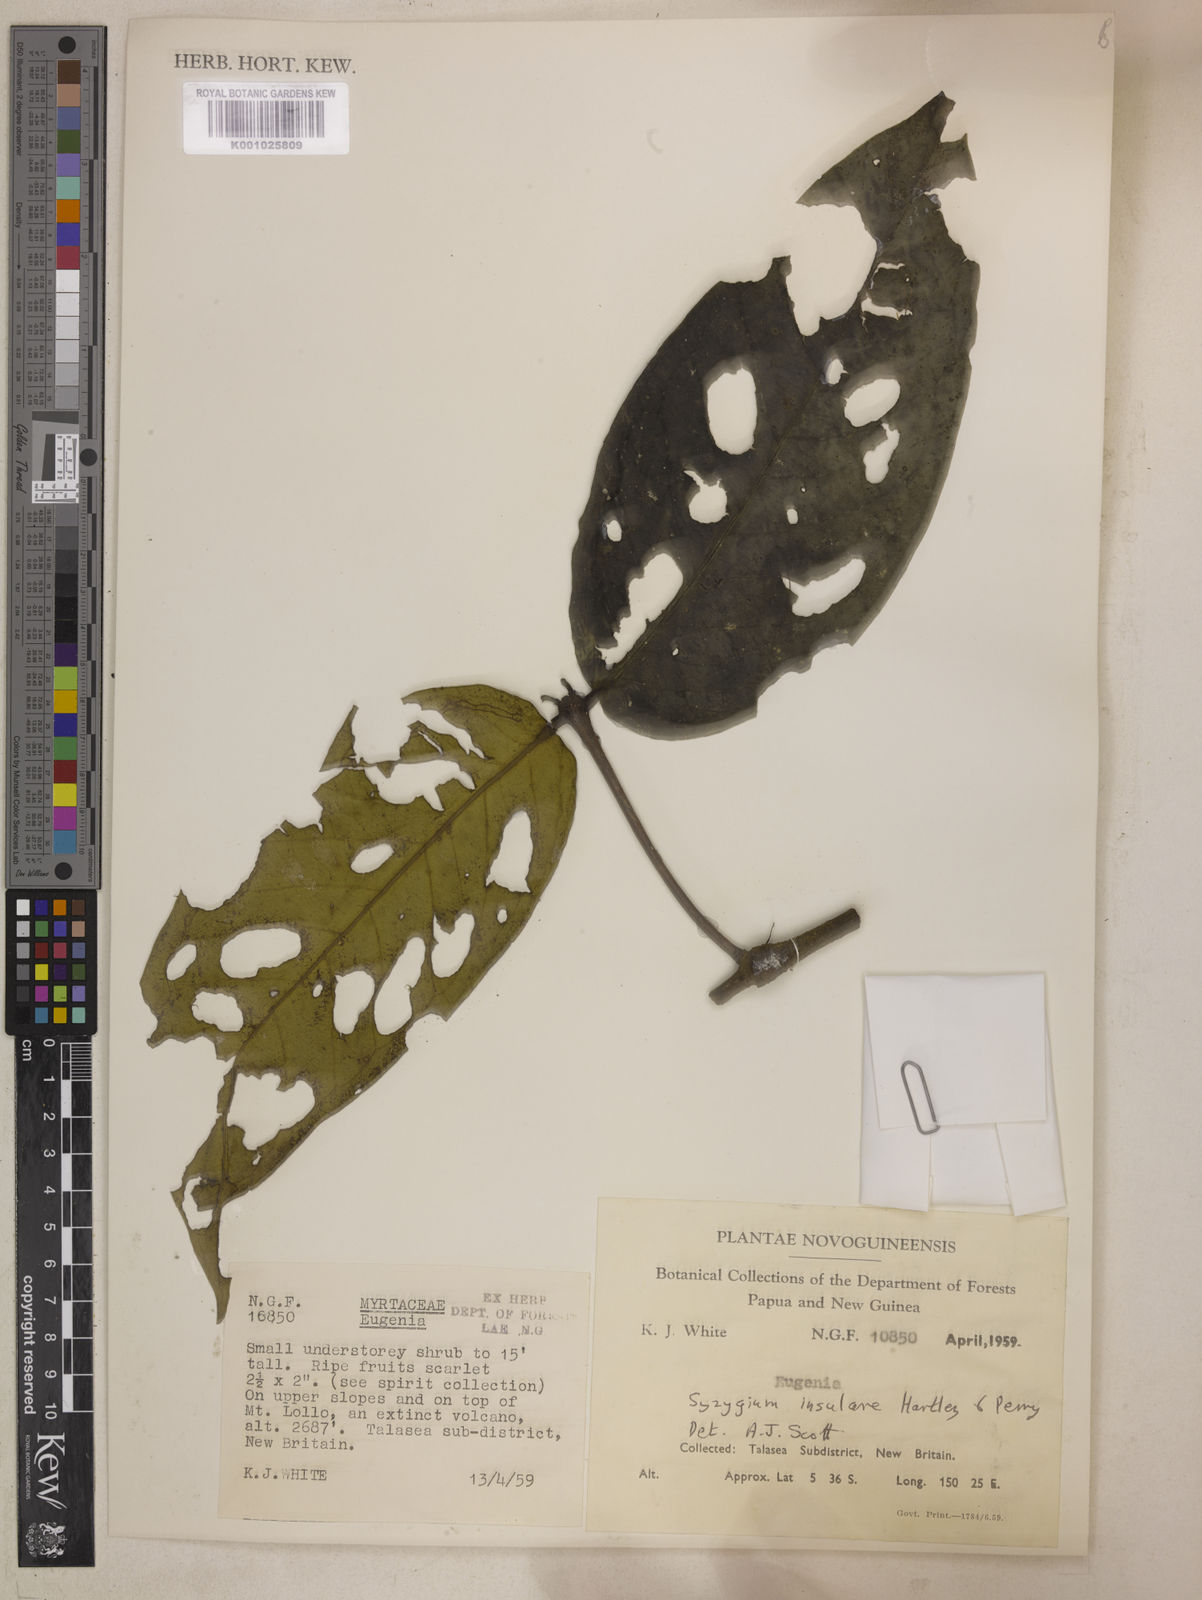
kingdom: Plantae
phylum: Tracheophyta
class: Magnoliopsida
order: Myrtales
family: Myrtaceae
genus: Syzygium
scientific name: Syzygium insulare
